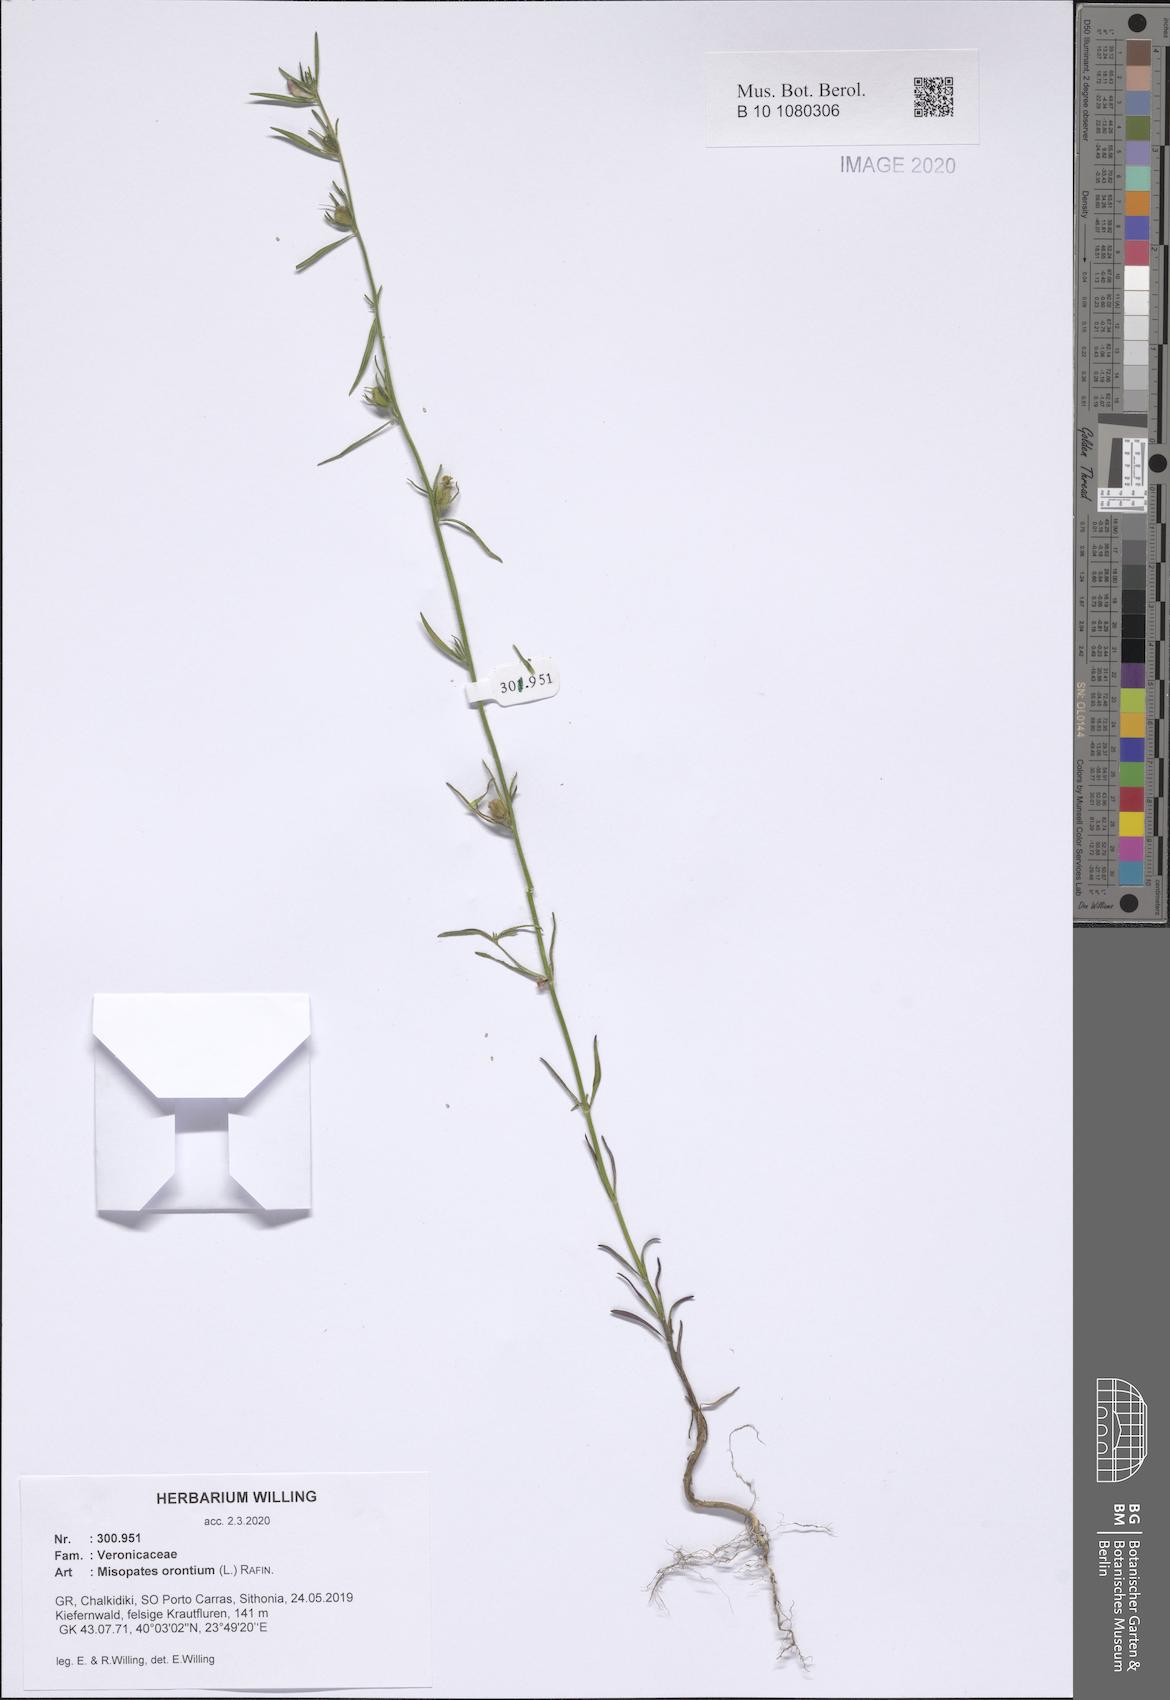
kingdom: Plantae
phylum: Tracheophyta
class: Magnoliopsida
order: Lamiales
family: Plantaginaceae
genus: Misopates
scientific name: Misopates orontium
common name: Weasel's-snout
